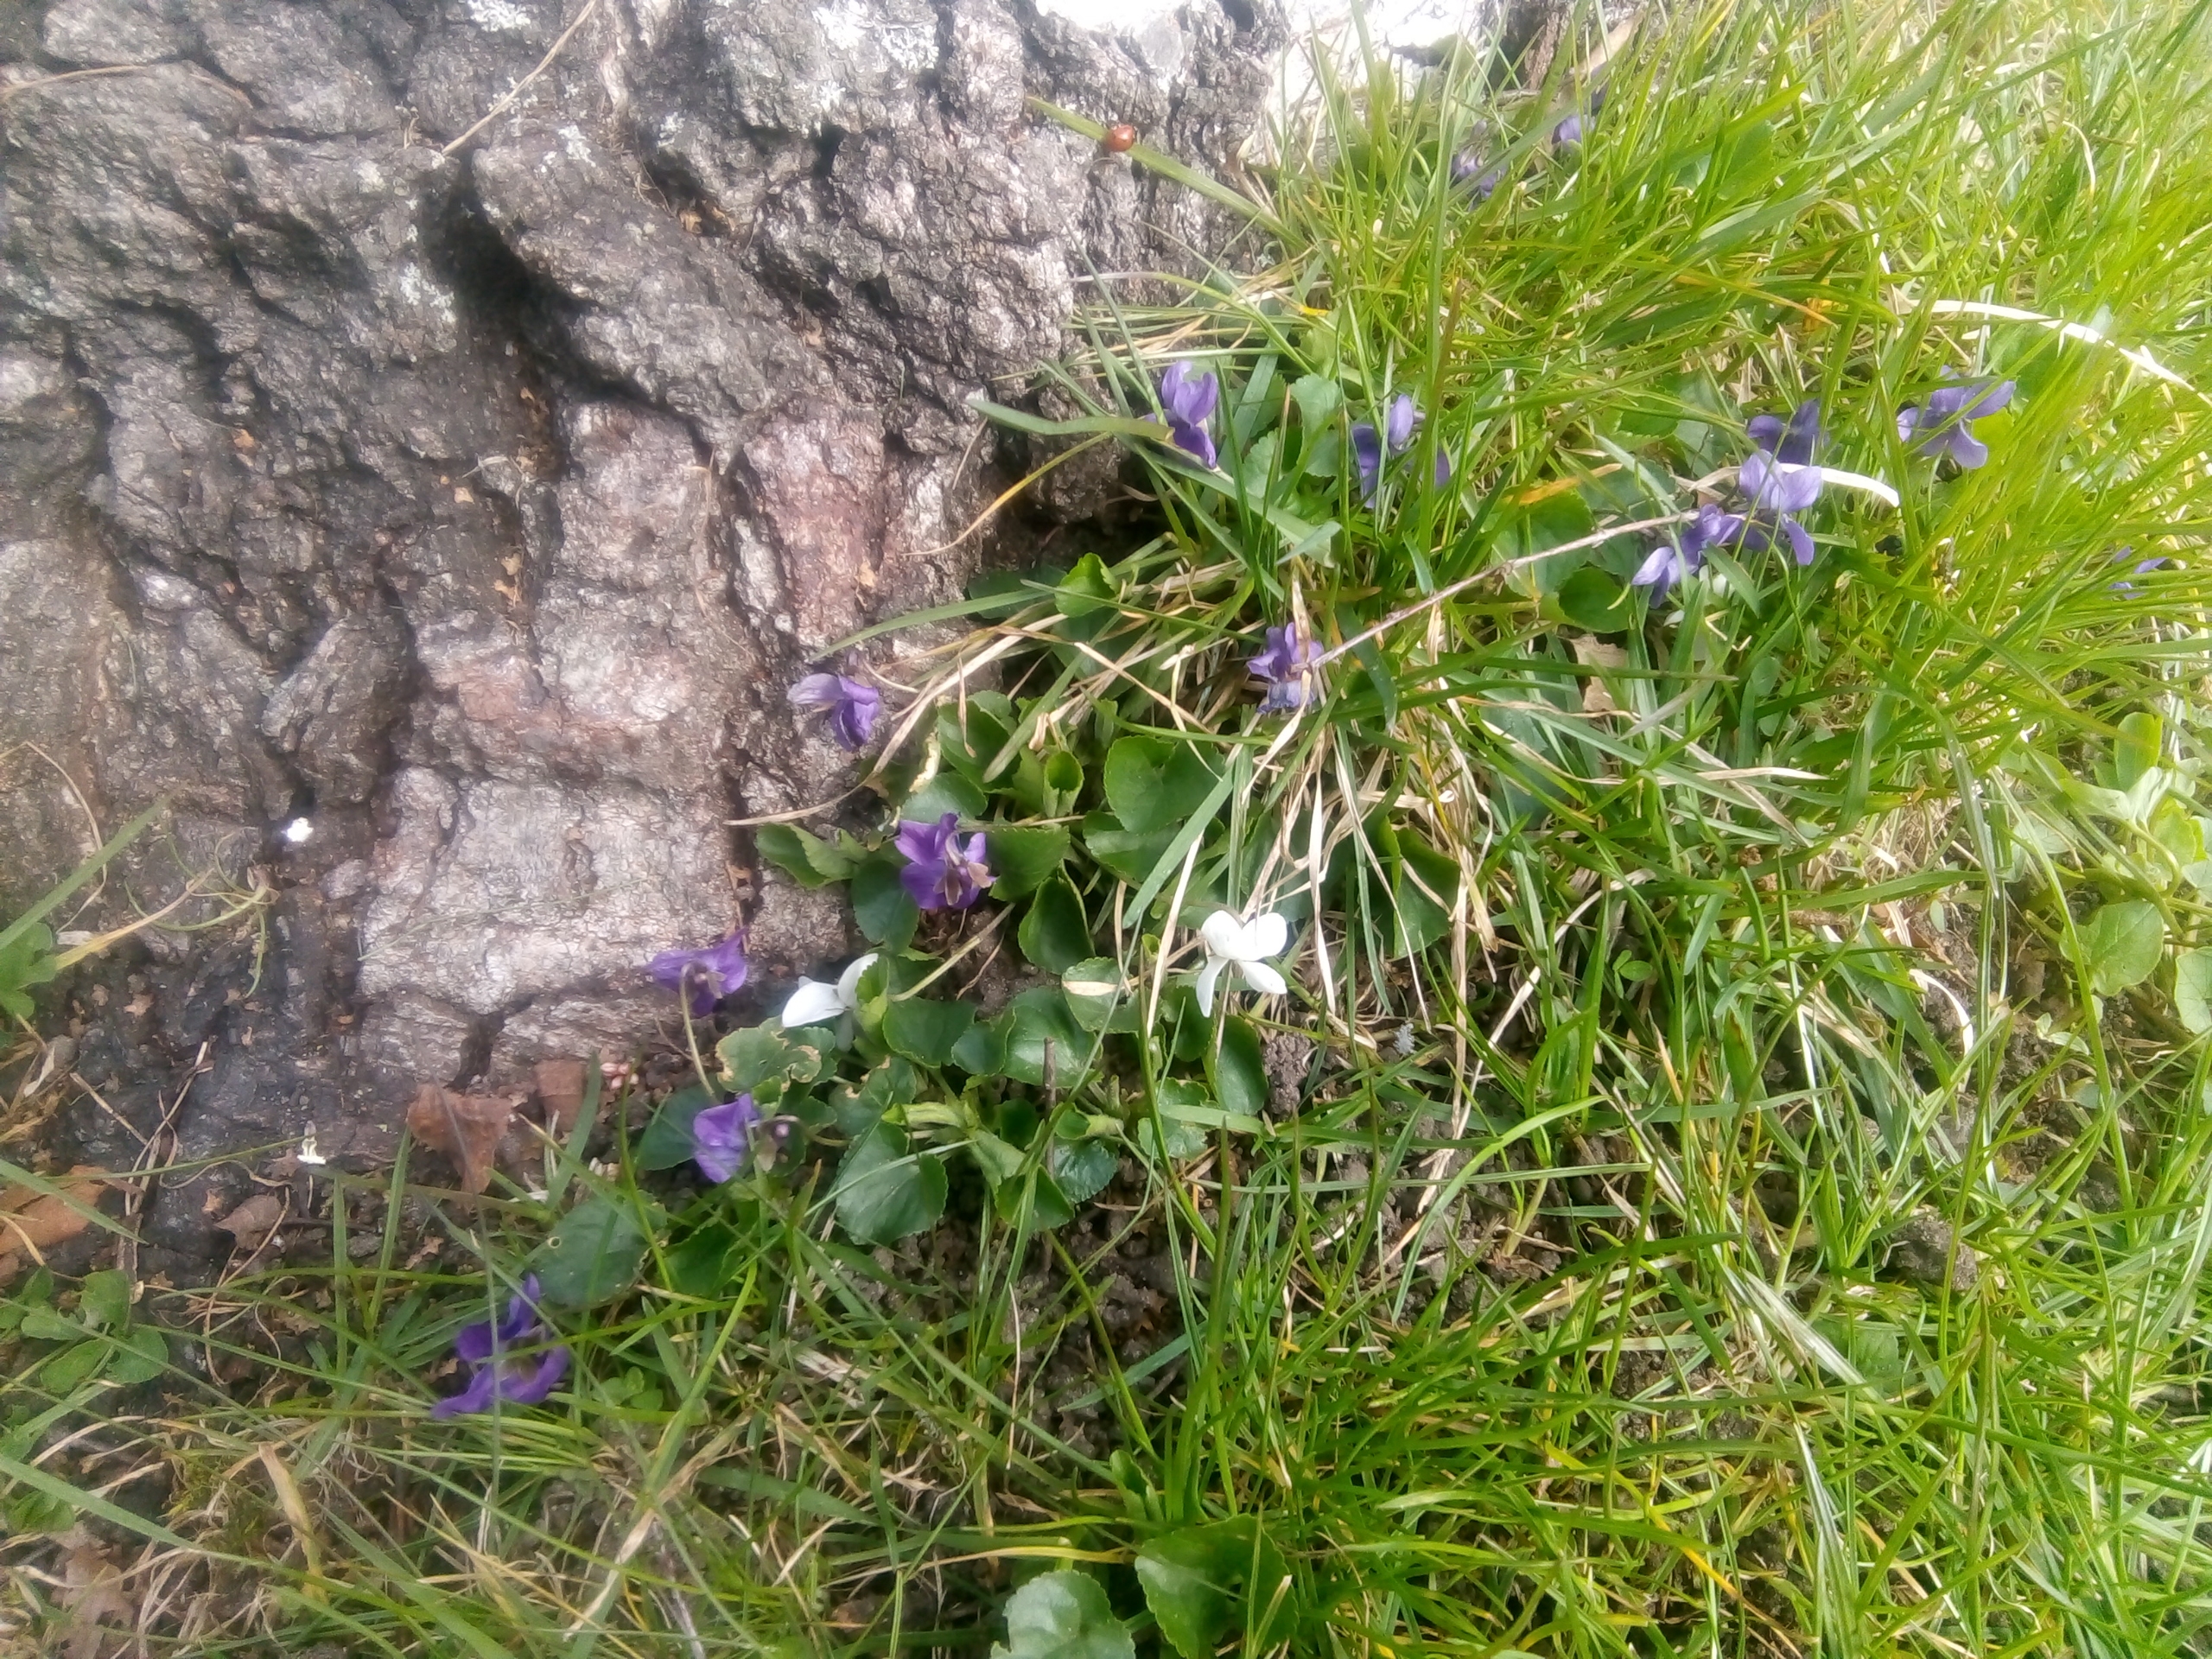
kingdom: Plantae
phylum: Tracheophyta
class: Magnoliopsida
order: Malpighiales
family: Violaceae
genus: Viola
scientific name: Viola odorata
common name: Marts-viol
